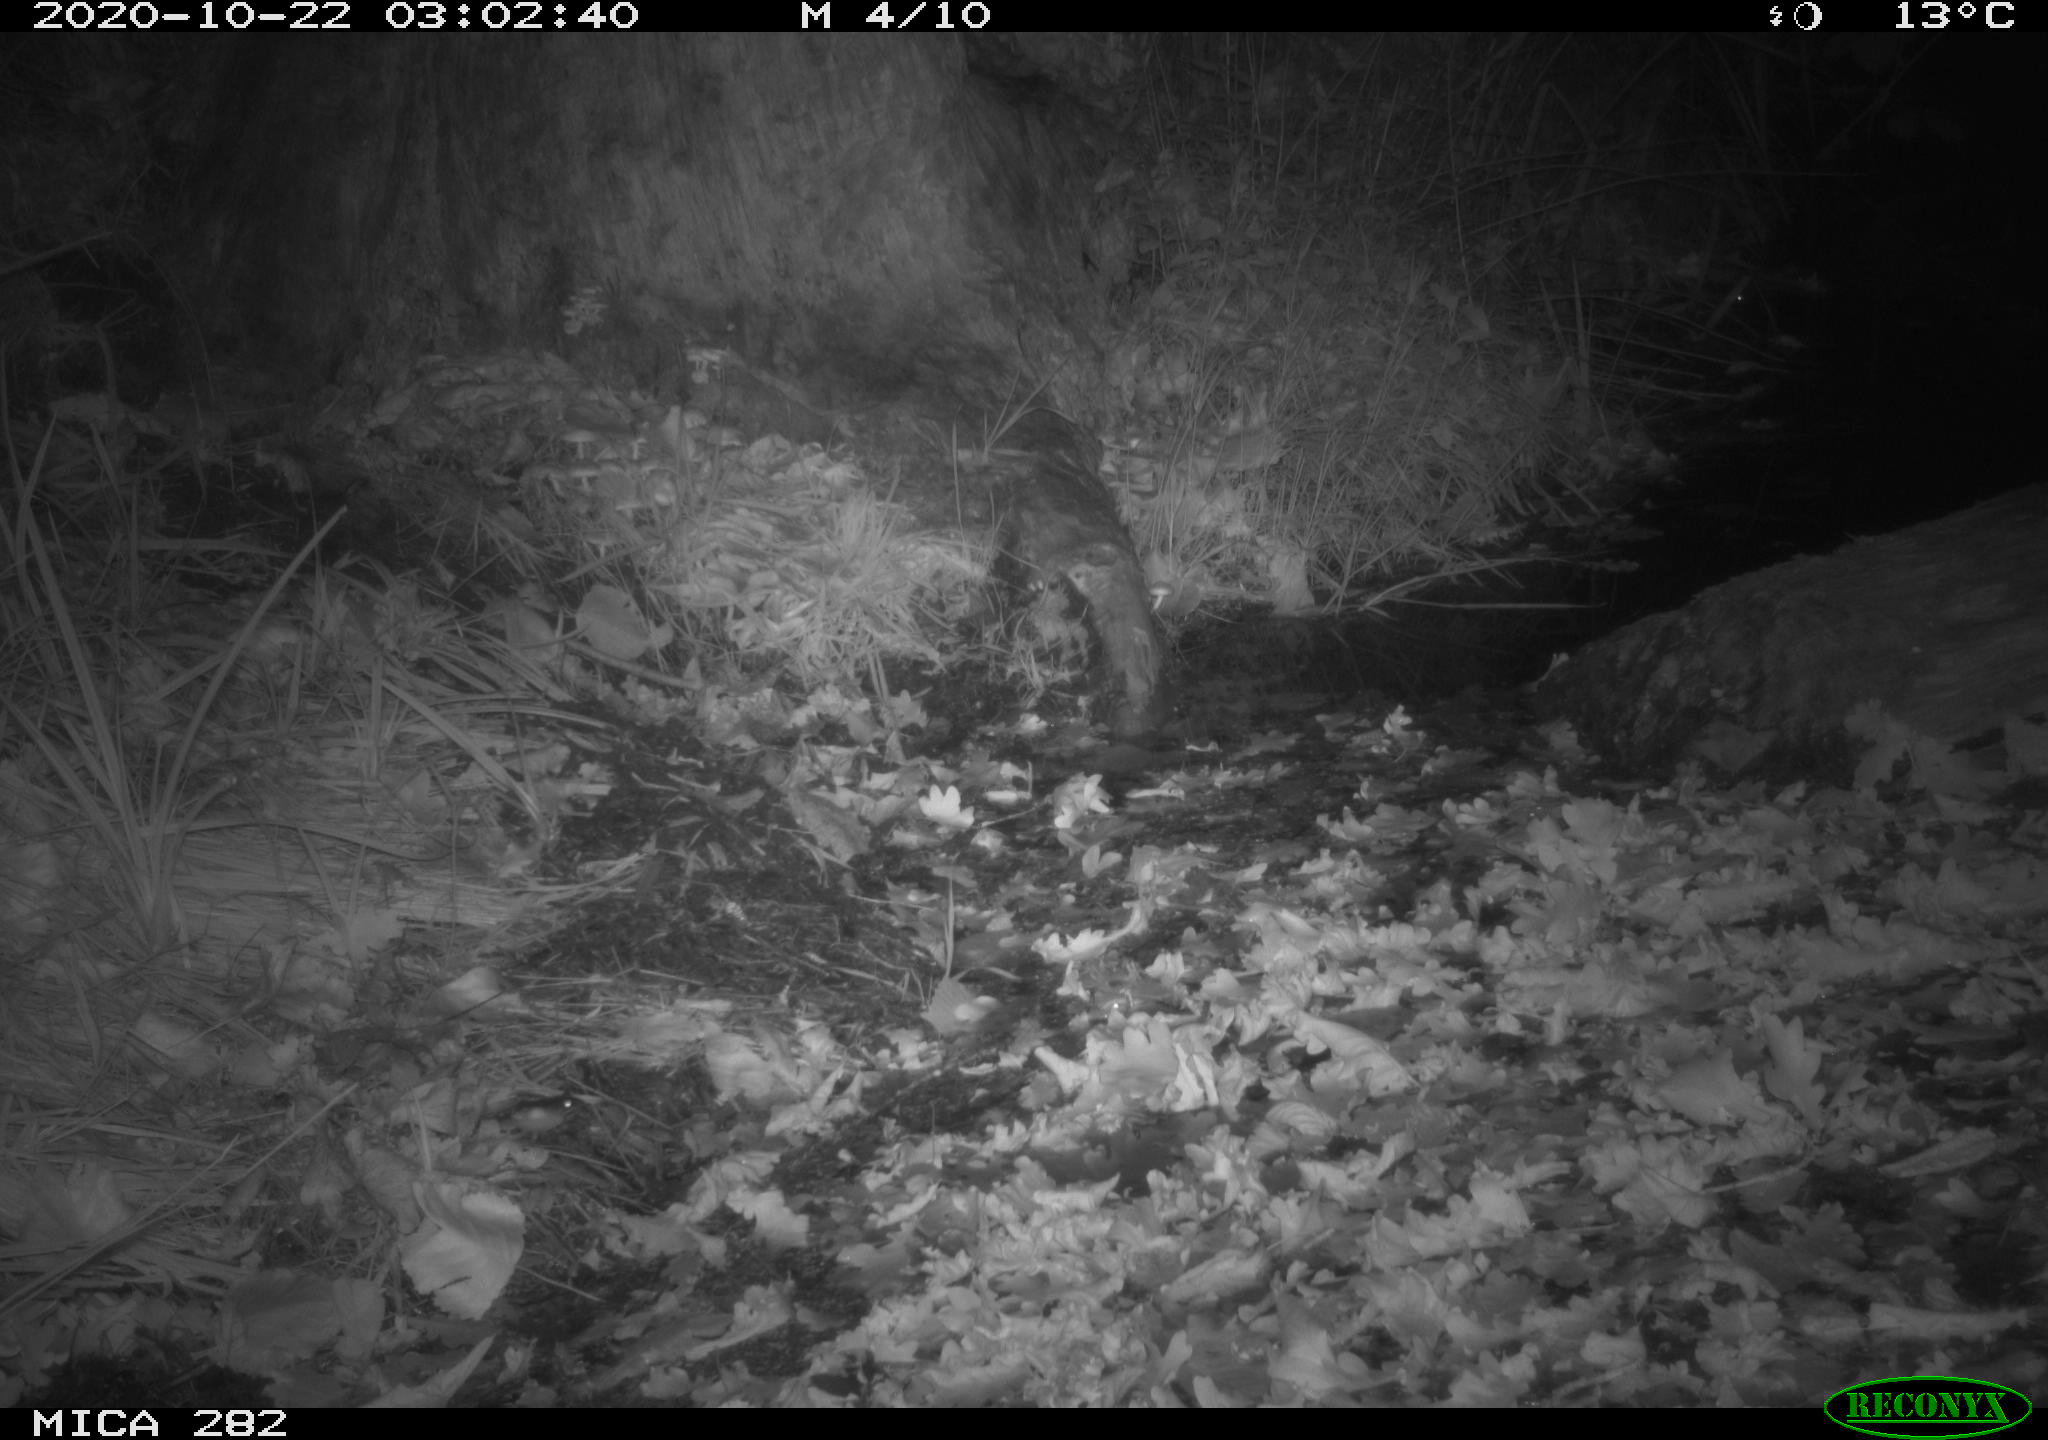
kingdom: Animalia
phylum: Chordata
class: Mammalia
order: Soricomorpha
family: Soricidae
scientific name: Soricidae
